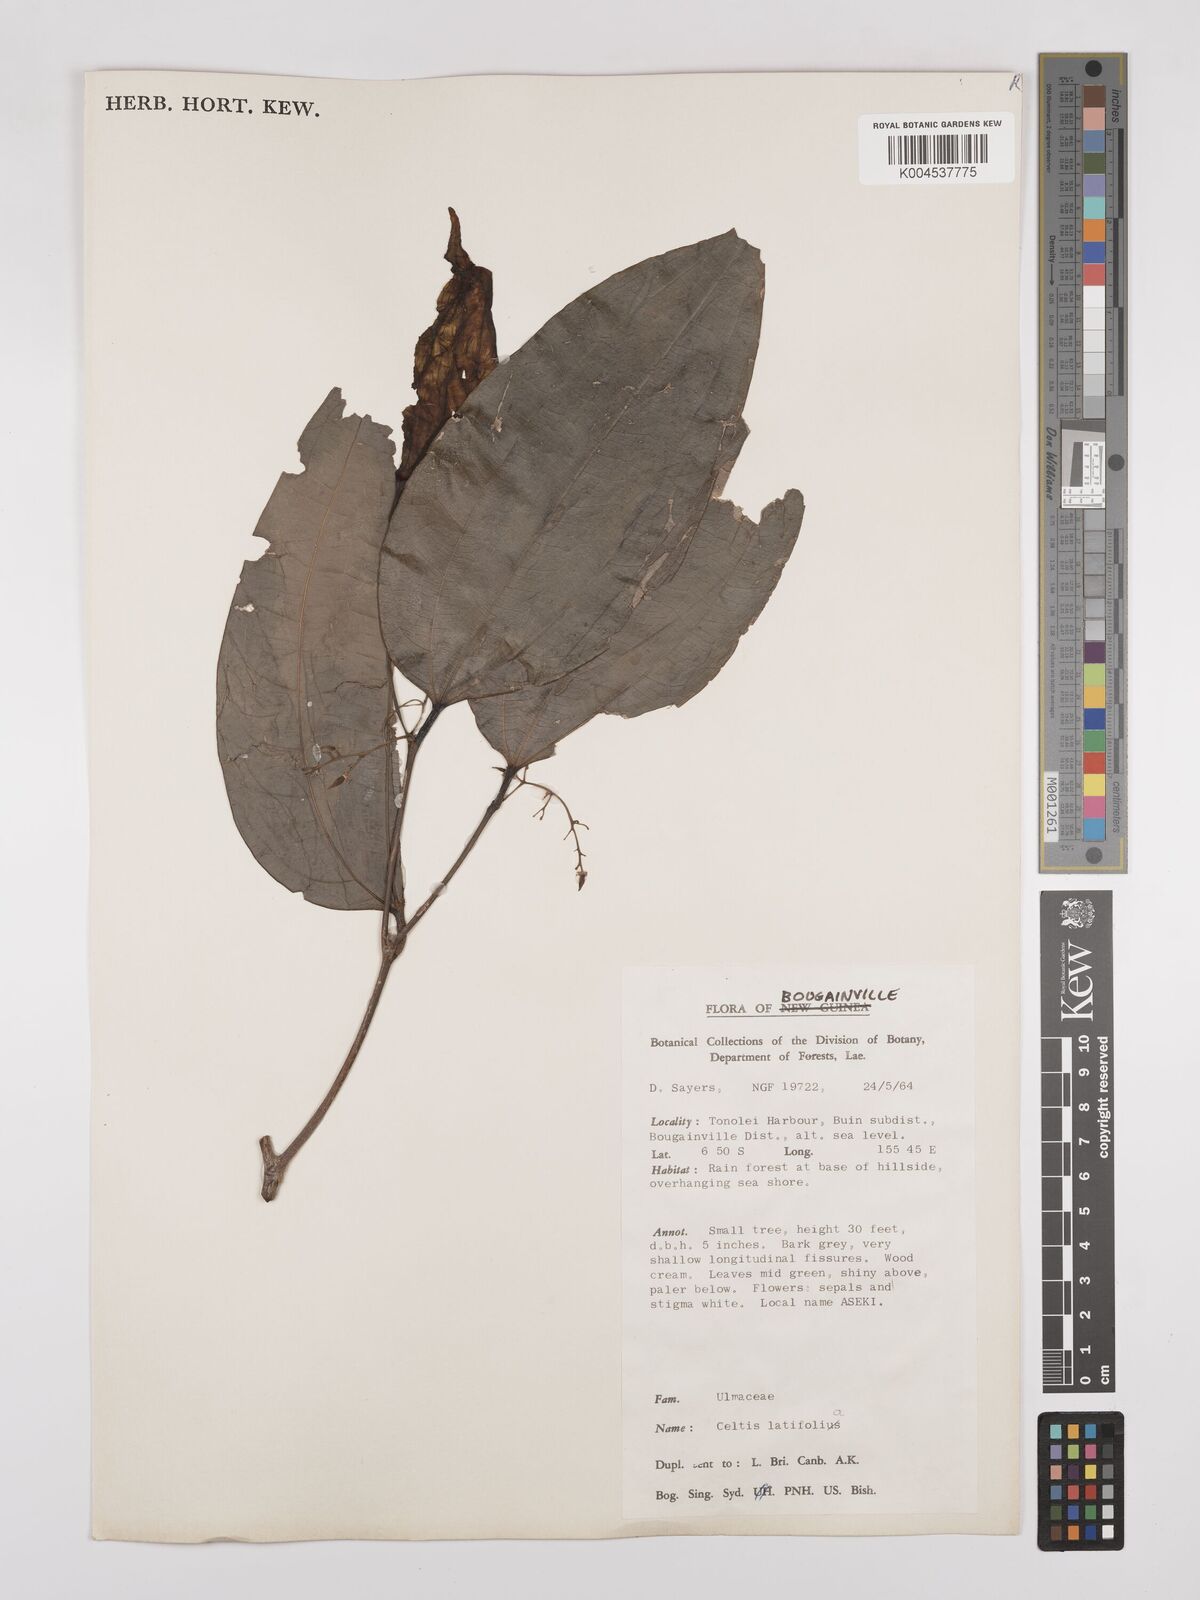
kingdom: Plantae
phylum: Tracheophyta
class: Magnoliopsida
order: Rosales
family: Cannabaceae
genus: Celtis
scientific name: Celtis latifolia
